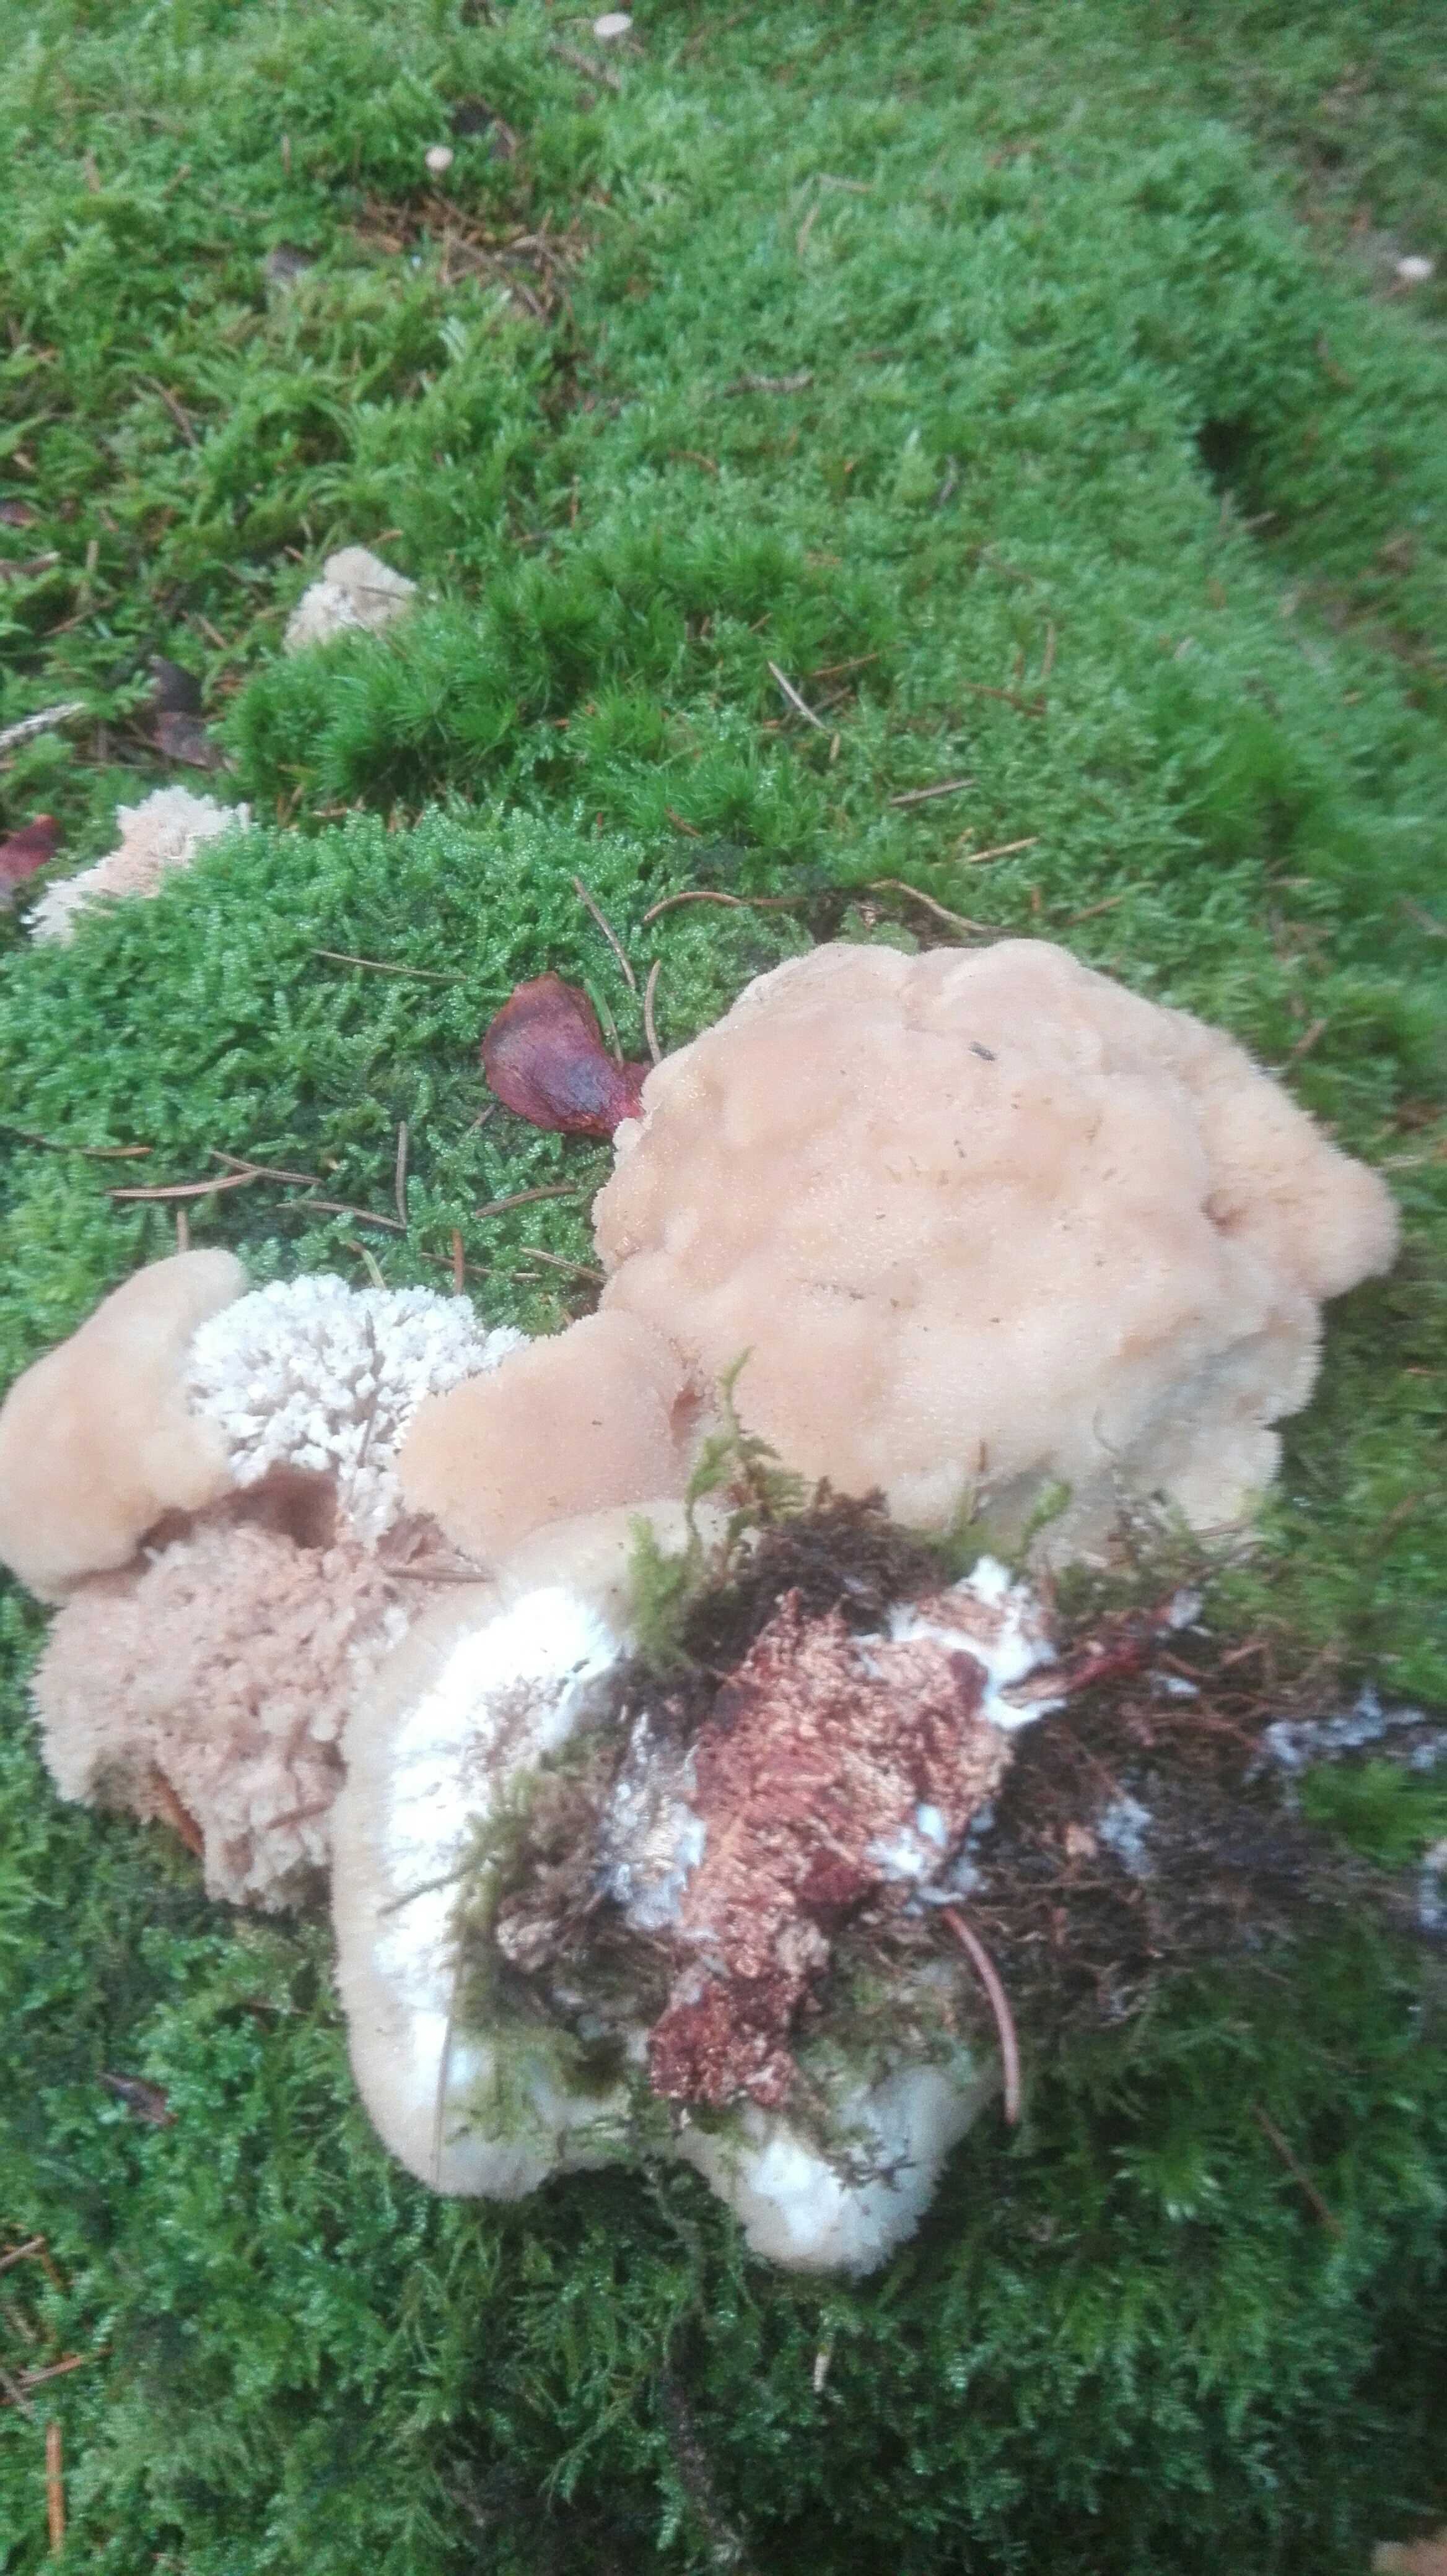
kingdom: Fungi
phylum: Basidiomycota
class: Agaricomycetes
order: Polyporales
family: Dacryobolaceae
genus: Postia
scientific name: Postia ptychogaster
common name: støvende kødporesvamp
